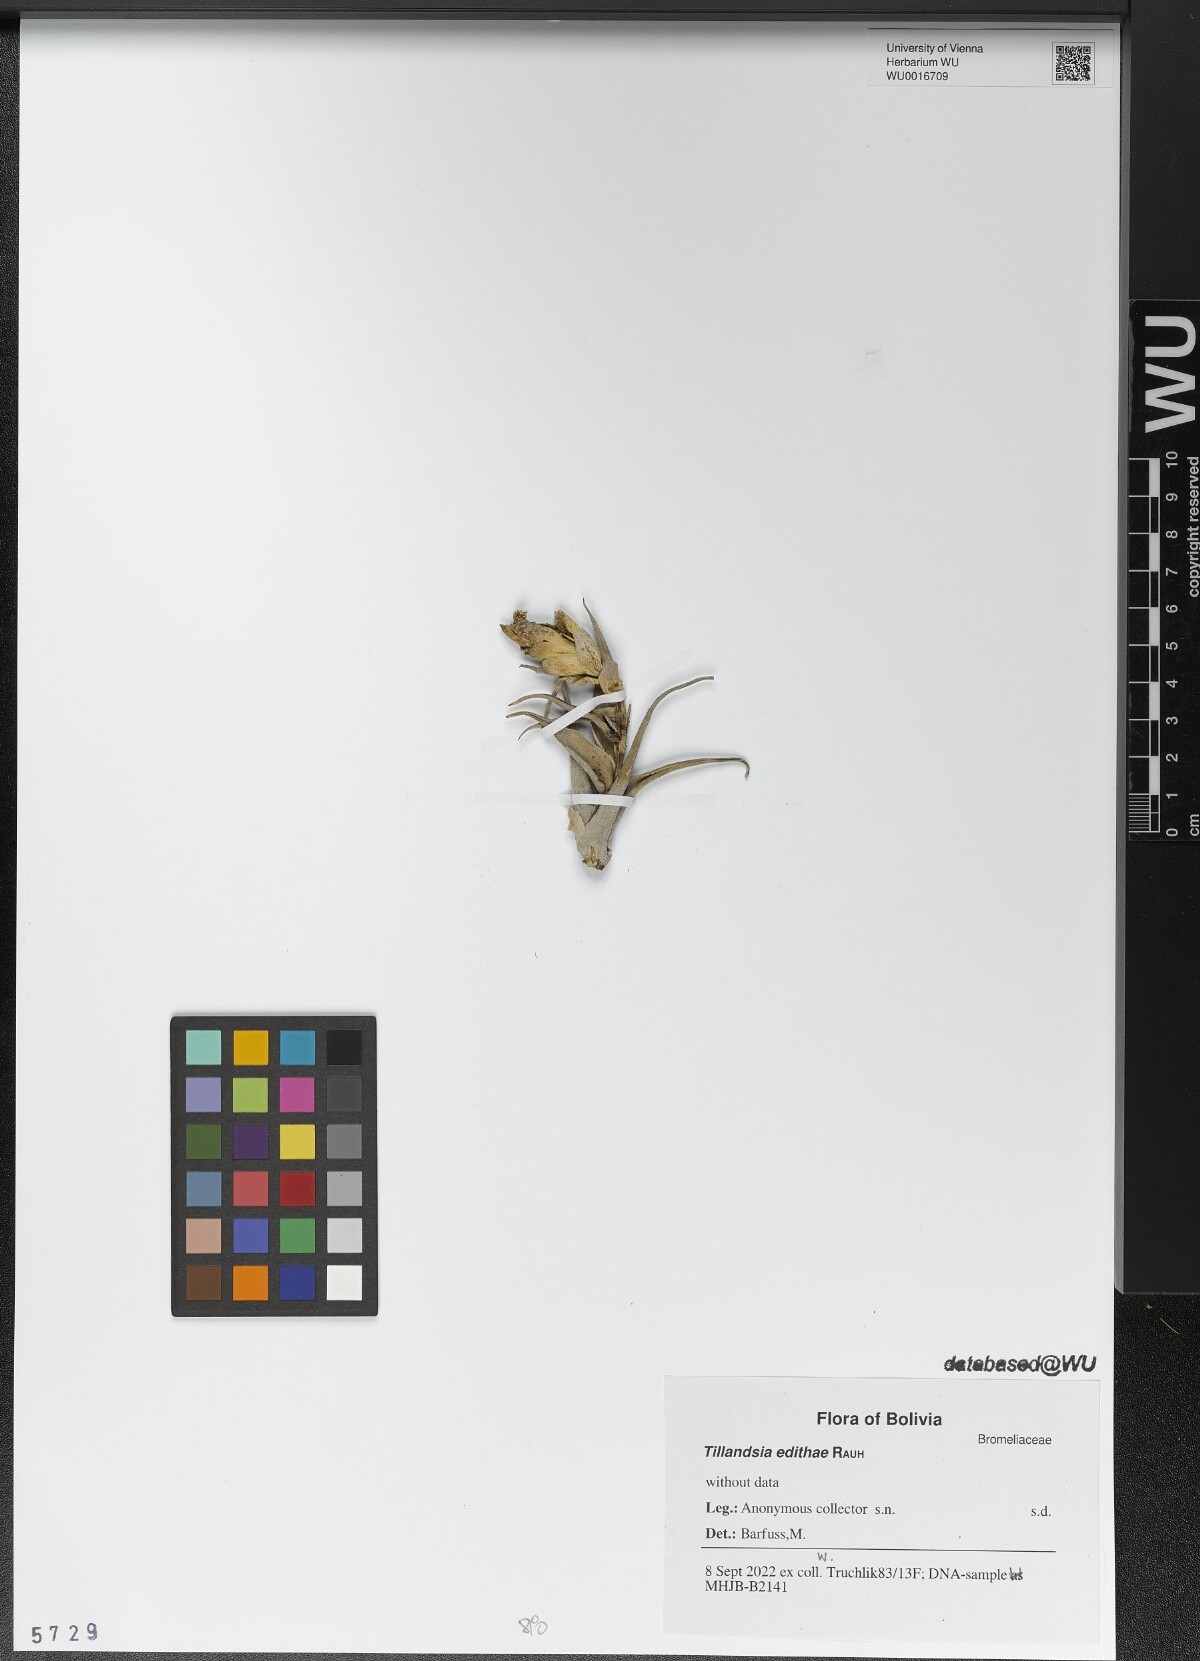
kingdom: Plantae
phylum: Tracheophyta
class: Liliopsida
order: Poales
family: Bromeliaceae
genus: Tillandsia
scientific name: Tillandsia edithae
